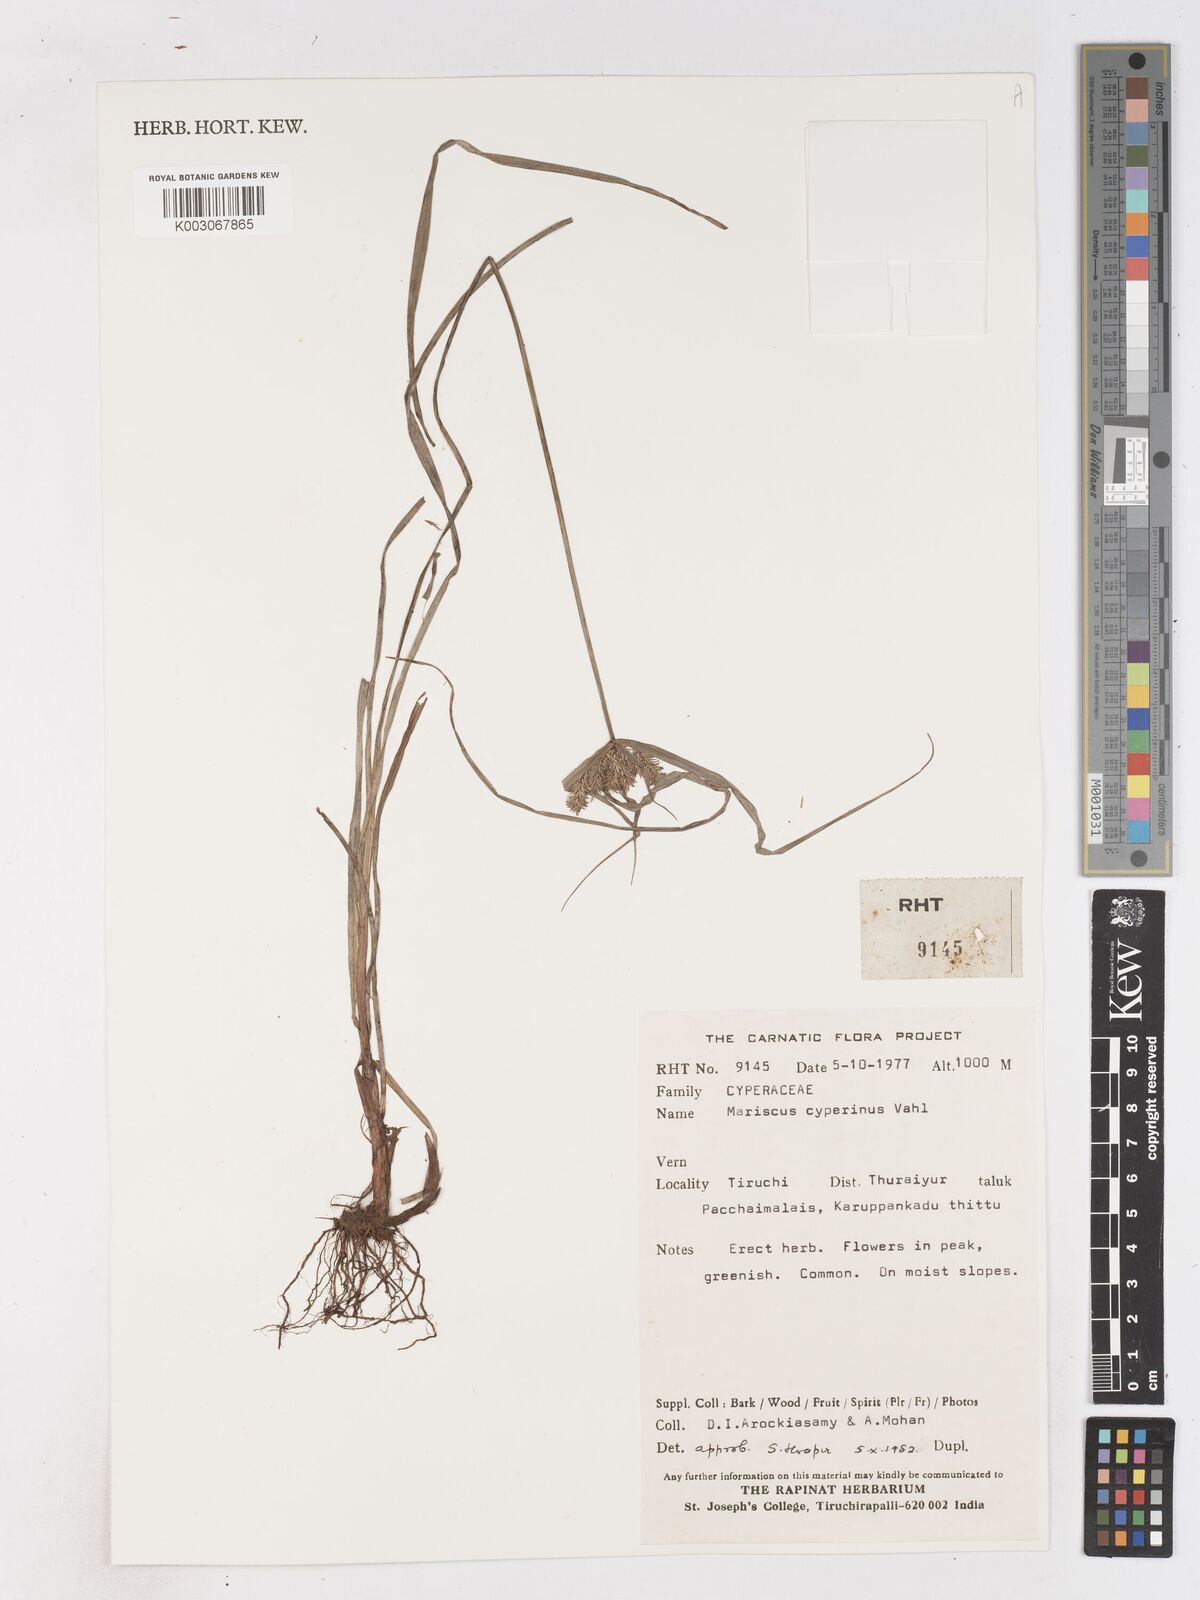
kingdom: Plantae
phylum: Tracheophyta
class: Liliopsida
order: Poales
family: Cyperaceae
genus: Cyperus
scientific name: Cyperus cyperinus
